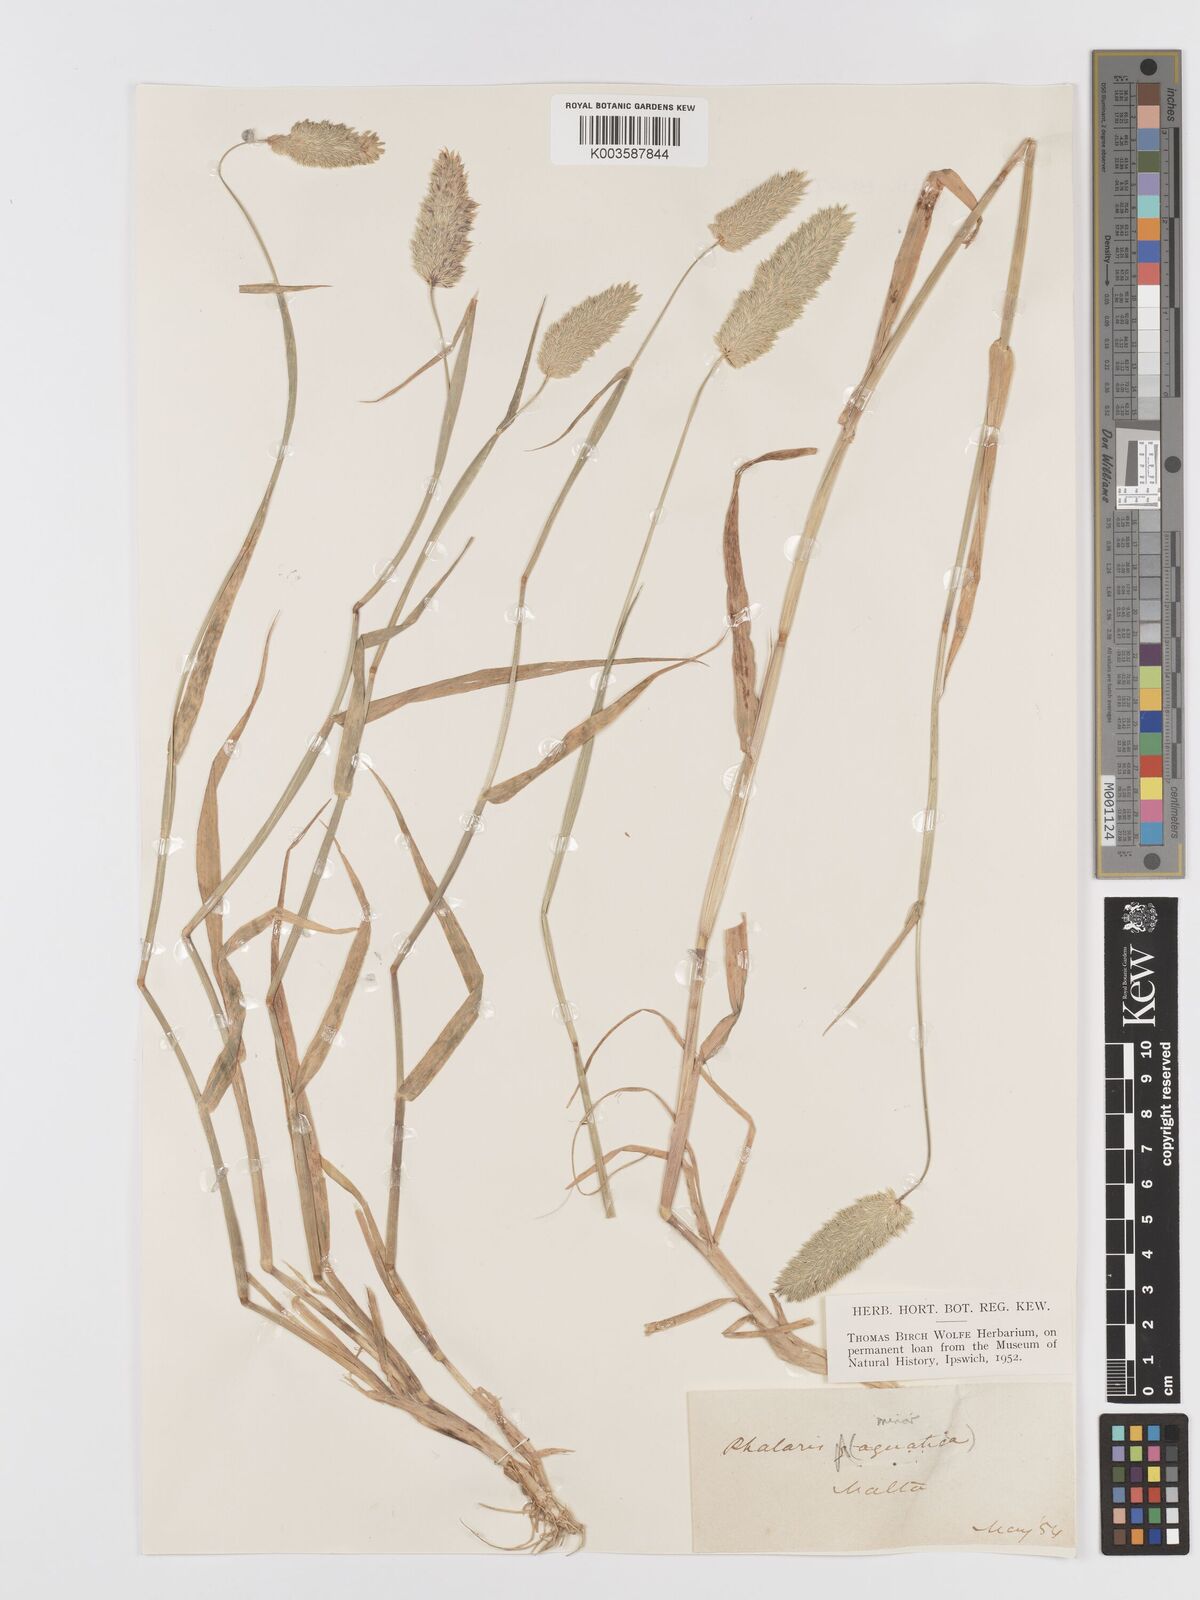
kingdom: Plantae
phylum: Tracheophyta
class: Liliopsida
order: Poales
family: Poaceae
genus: Phalaris
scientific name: Phalaris minor
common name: Littleseed canarygrass
